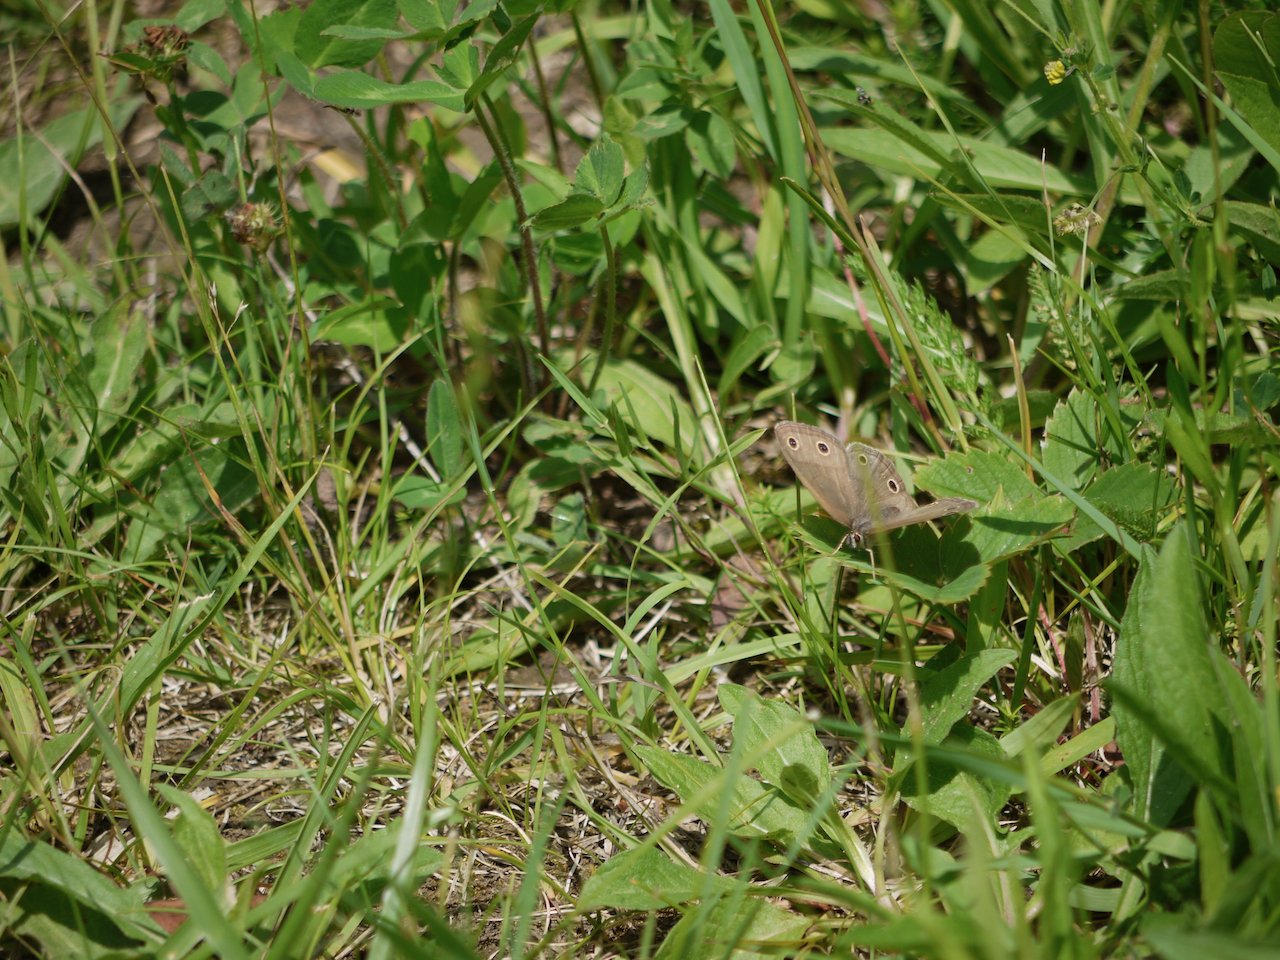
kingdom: Animalia
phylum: Arthropoda
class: Insecta
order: Lepidoptera
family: Nymphalidae
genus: Euptychia
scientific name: Euptychia cymela
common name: Little Wood Satyr
